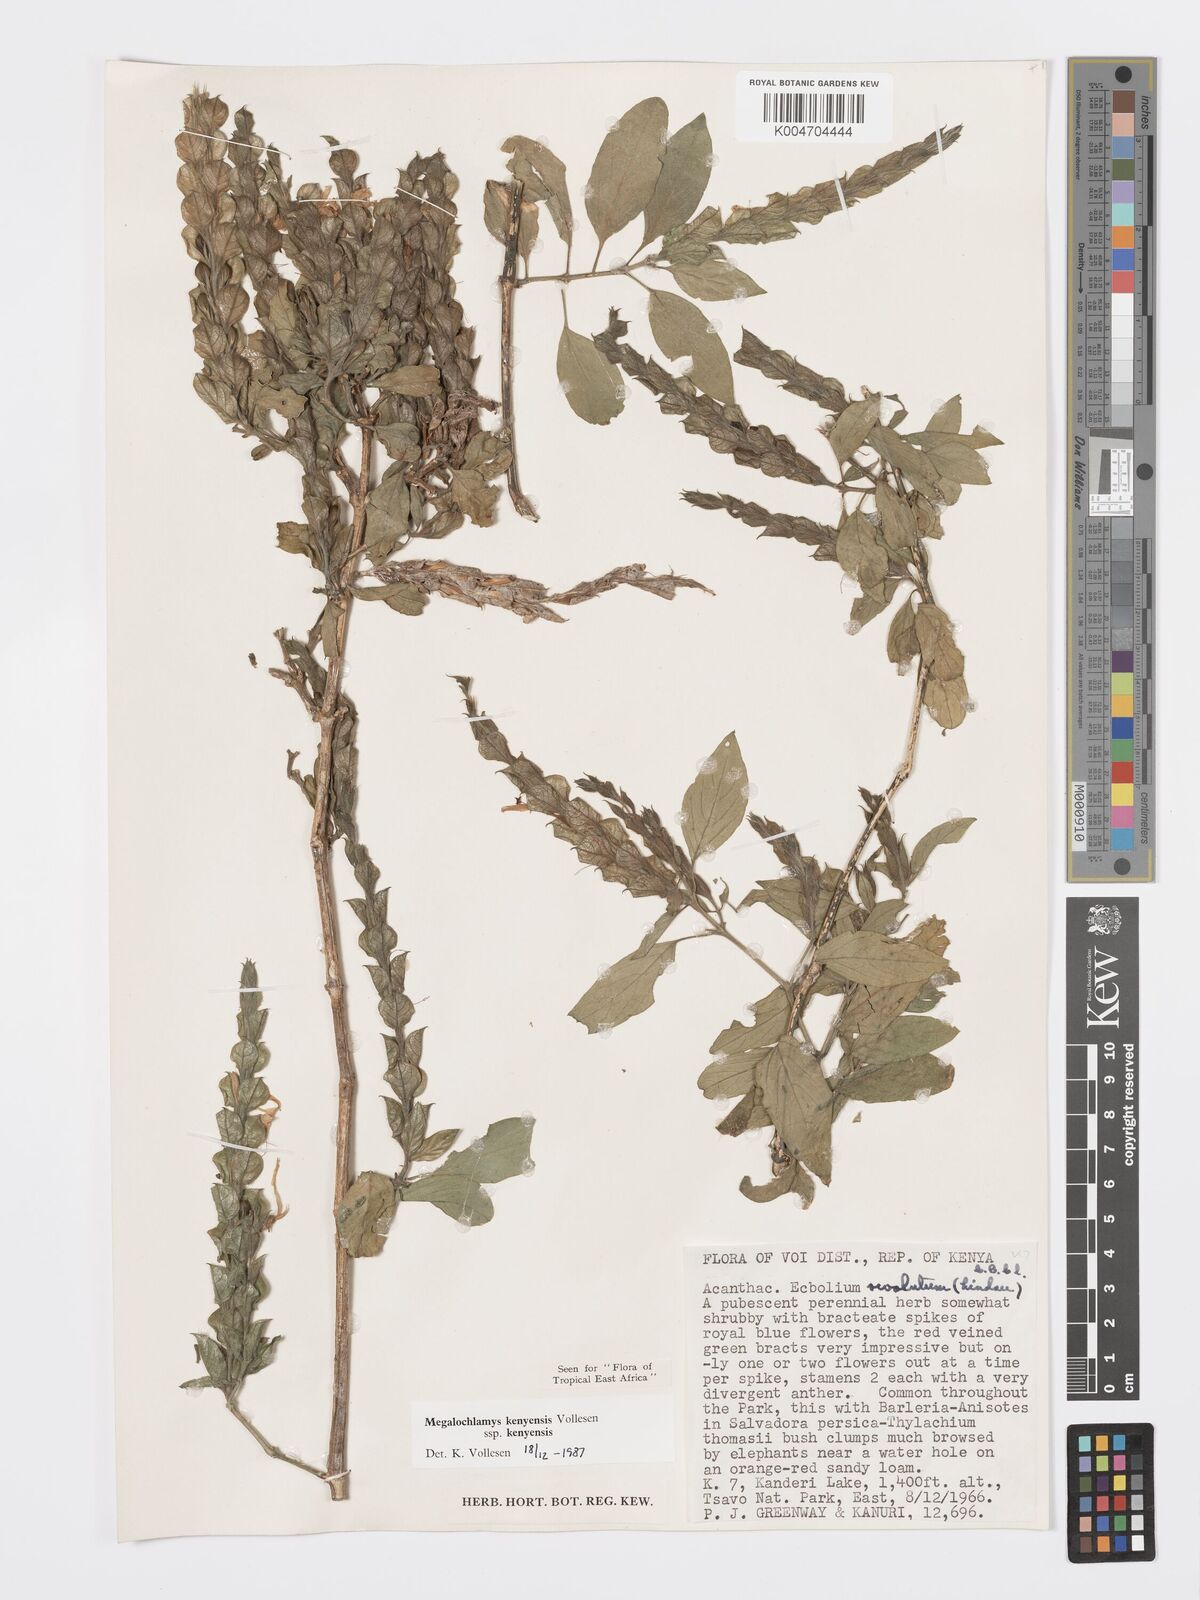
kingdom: Plantae
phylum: Tracheophyta
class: Magnoliopsida
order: Lamiales
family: Acanthaceae
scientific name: Acanthaceae
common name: Acanthaceae
